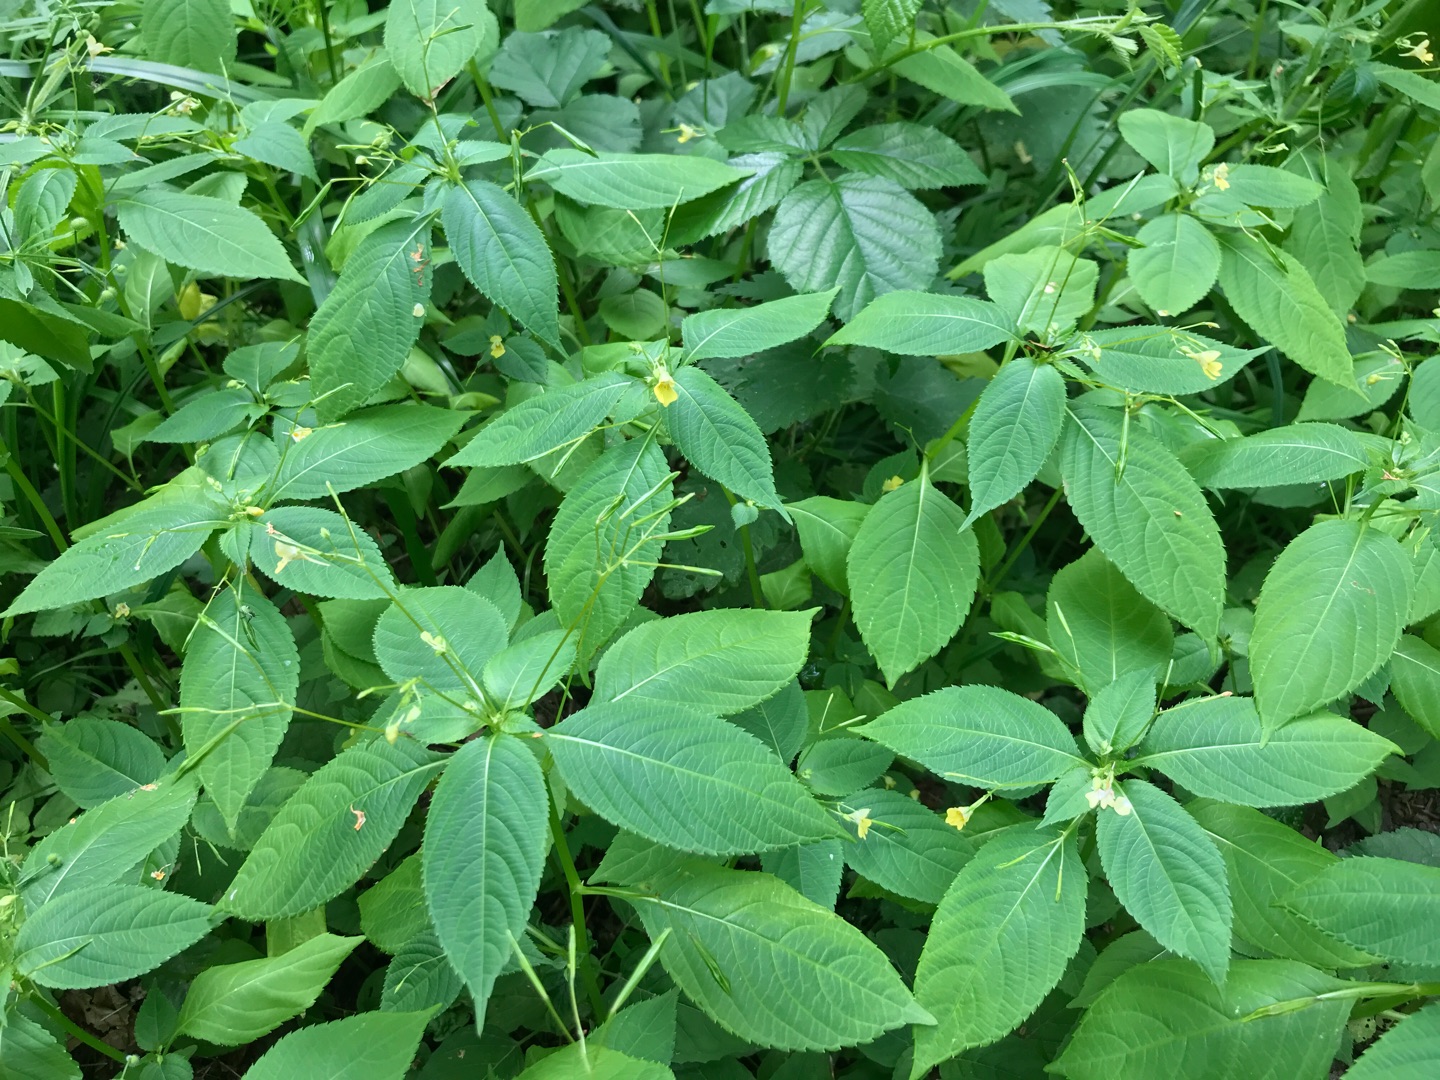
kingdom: Plantae
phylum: Tracheophyta
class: Magnoliopsida
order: Ericales
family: Balsaminaceae
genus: Impatiens
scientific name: Impatiens parviflora
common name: Småblomstret balsamin
